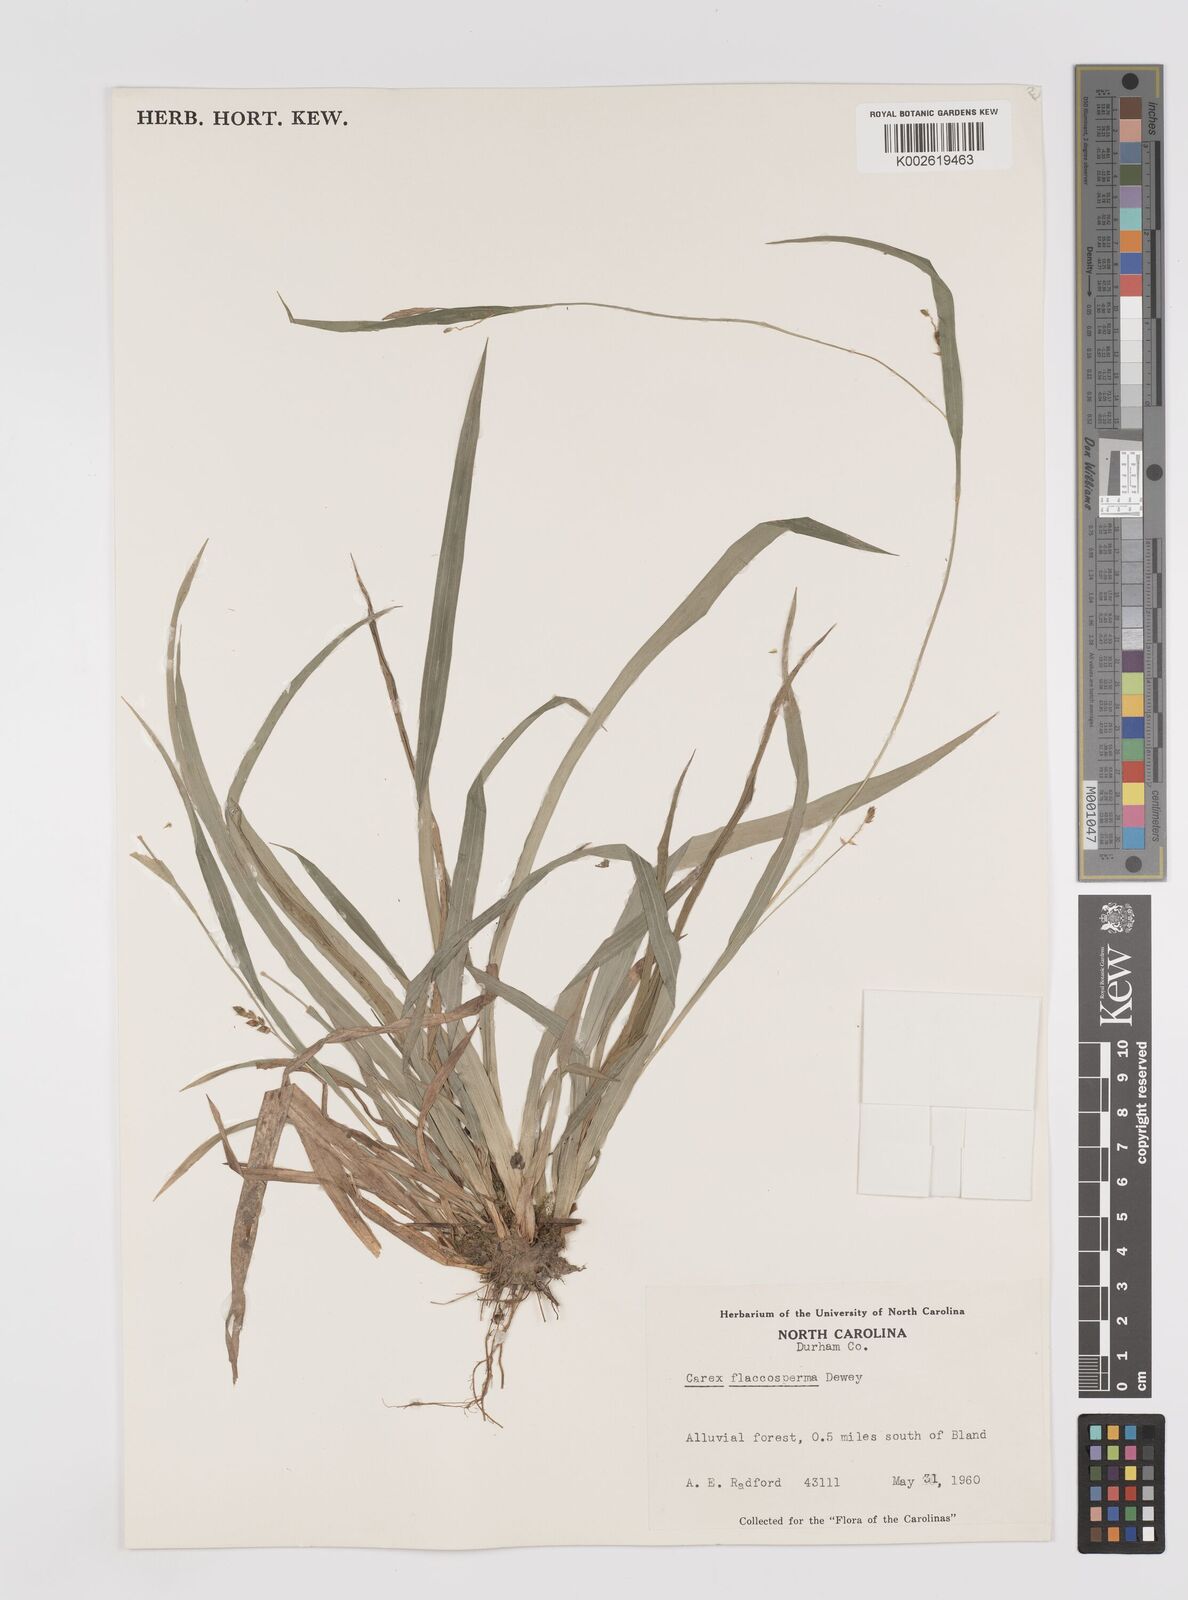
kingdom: Plantae
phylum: Tracheophyta
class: Liliopsida
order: Poales
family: Cyperaceae
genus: Carex
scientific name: Carex flaccosperma
